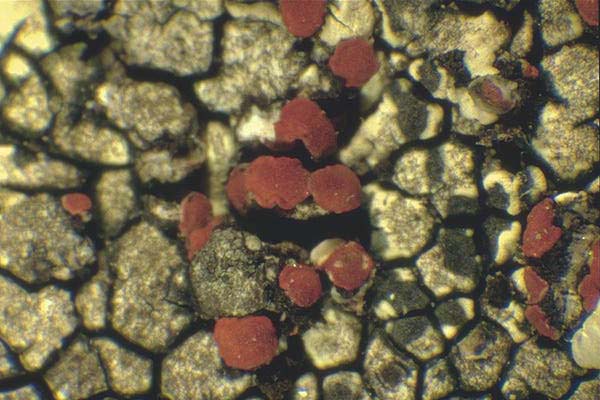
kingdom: Fungi
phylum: Ascomycota
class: Lecanoromycetes
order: Teloschistales
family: Teloschistaceae
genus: Erichansenia
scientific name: Erichansenia epithallina
